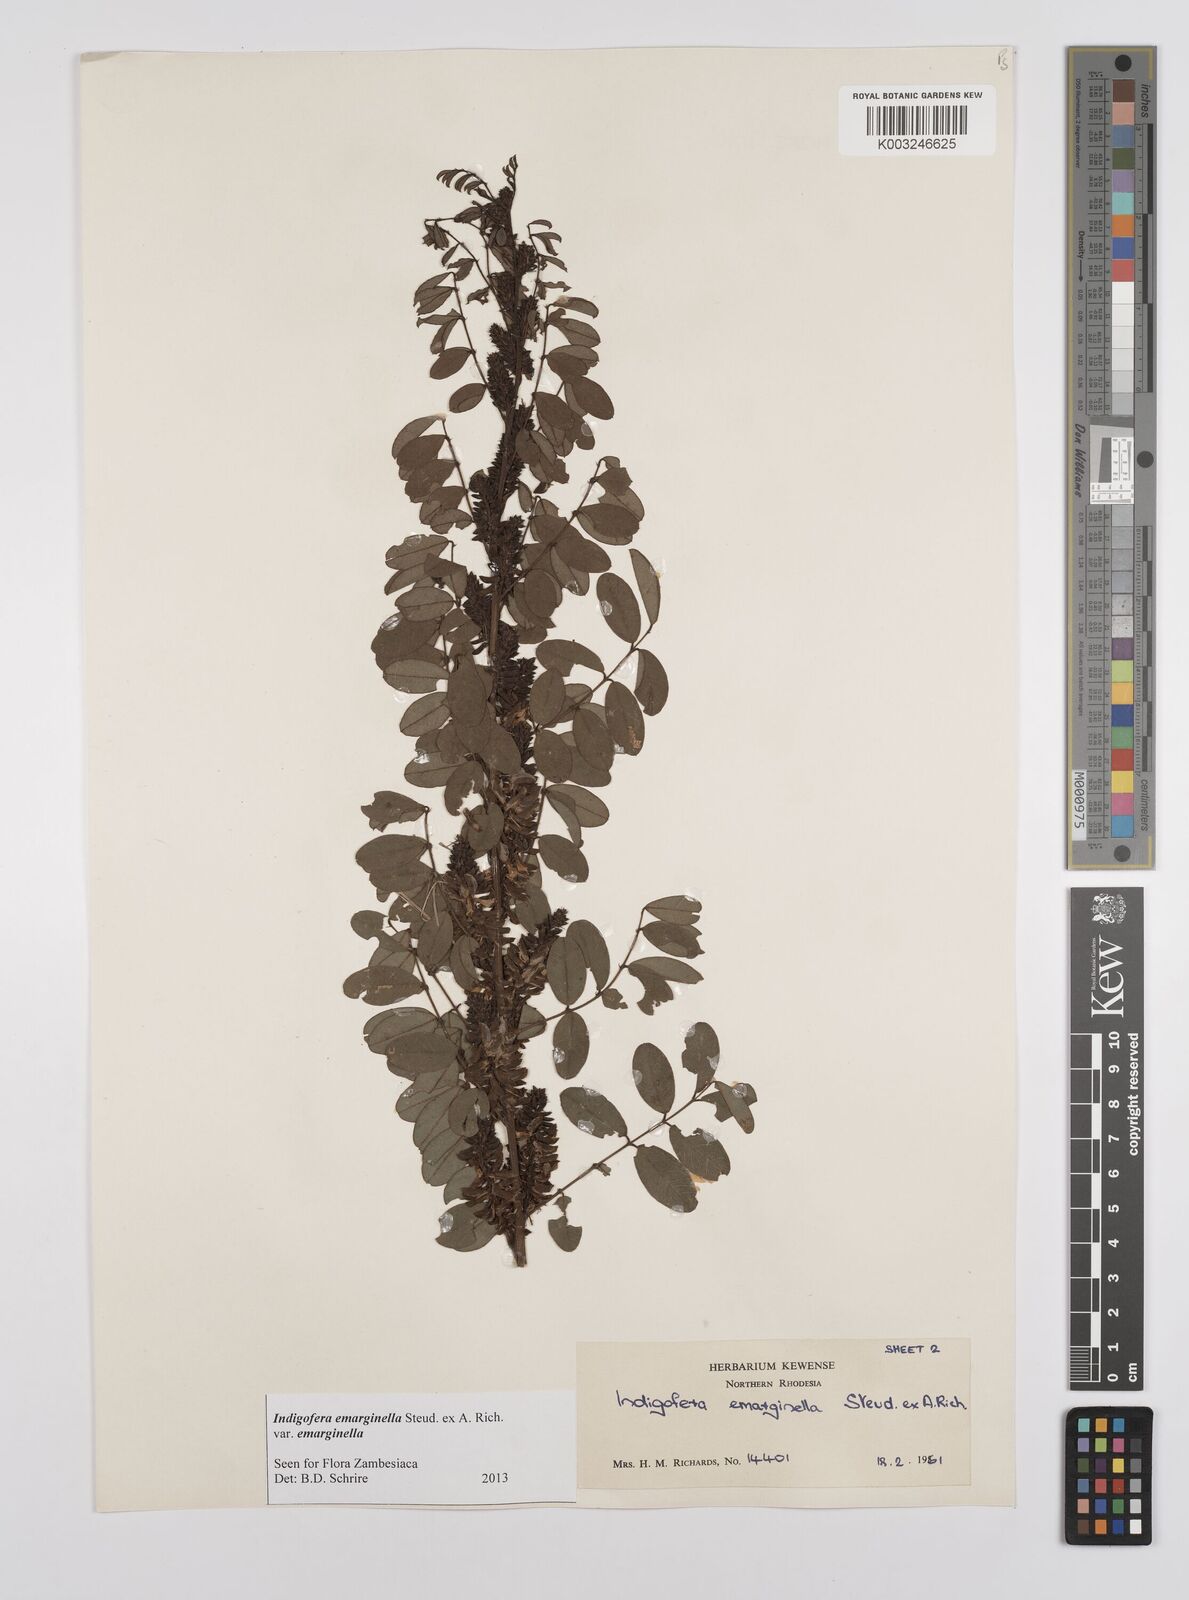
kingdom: Plantae
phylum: Tracheophyta
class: Magnoliopsida
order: Fabales
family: Fabaceae
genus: Indigofera
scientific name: Indigofera emarginella
